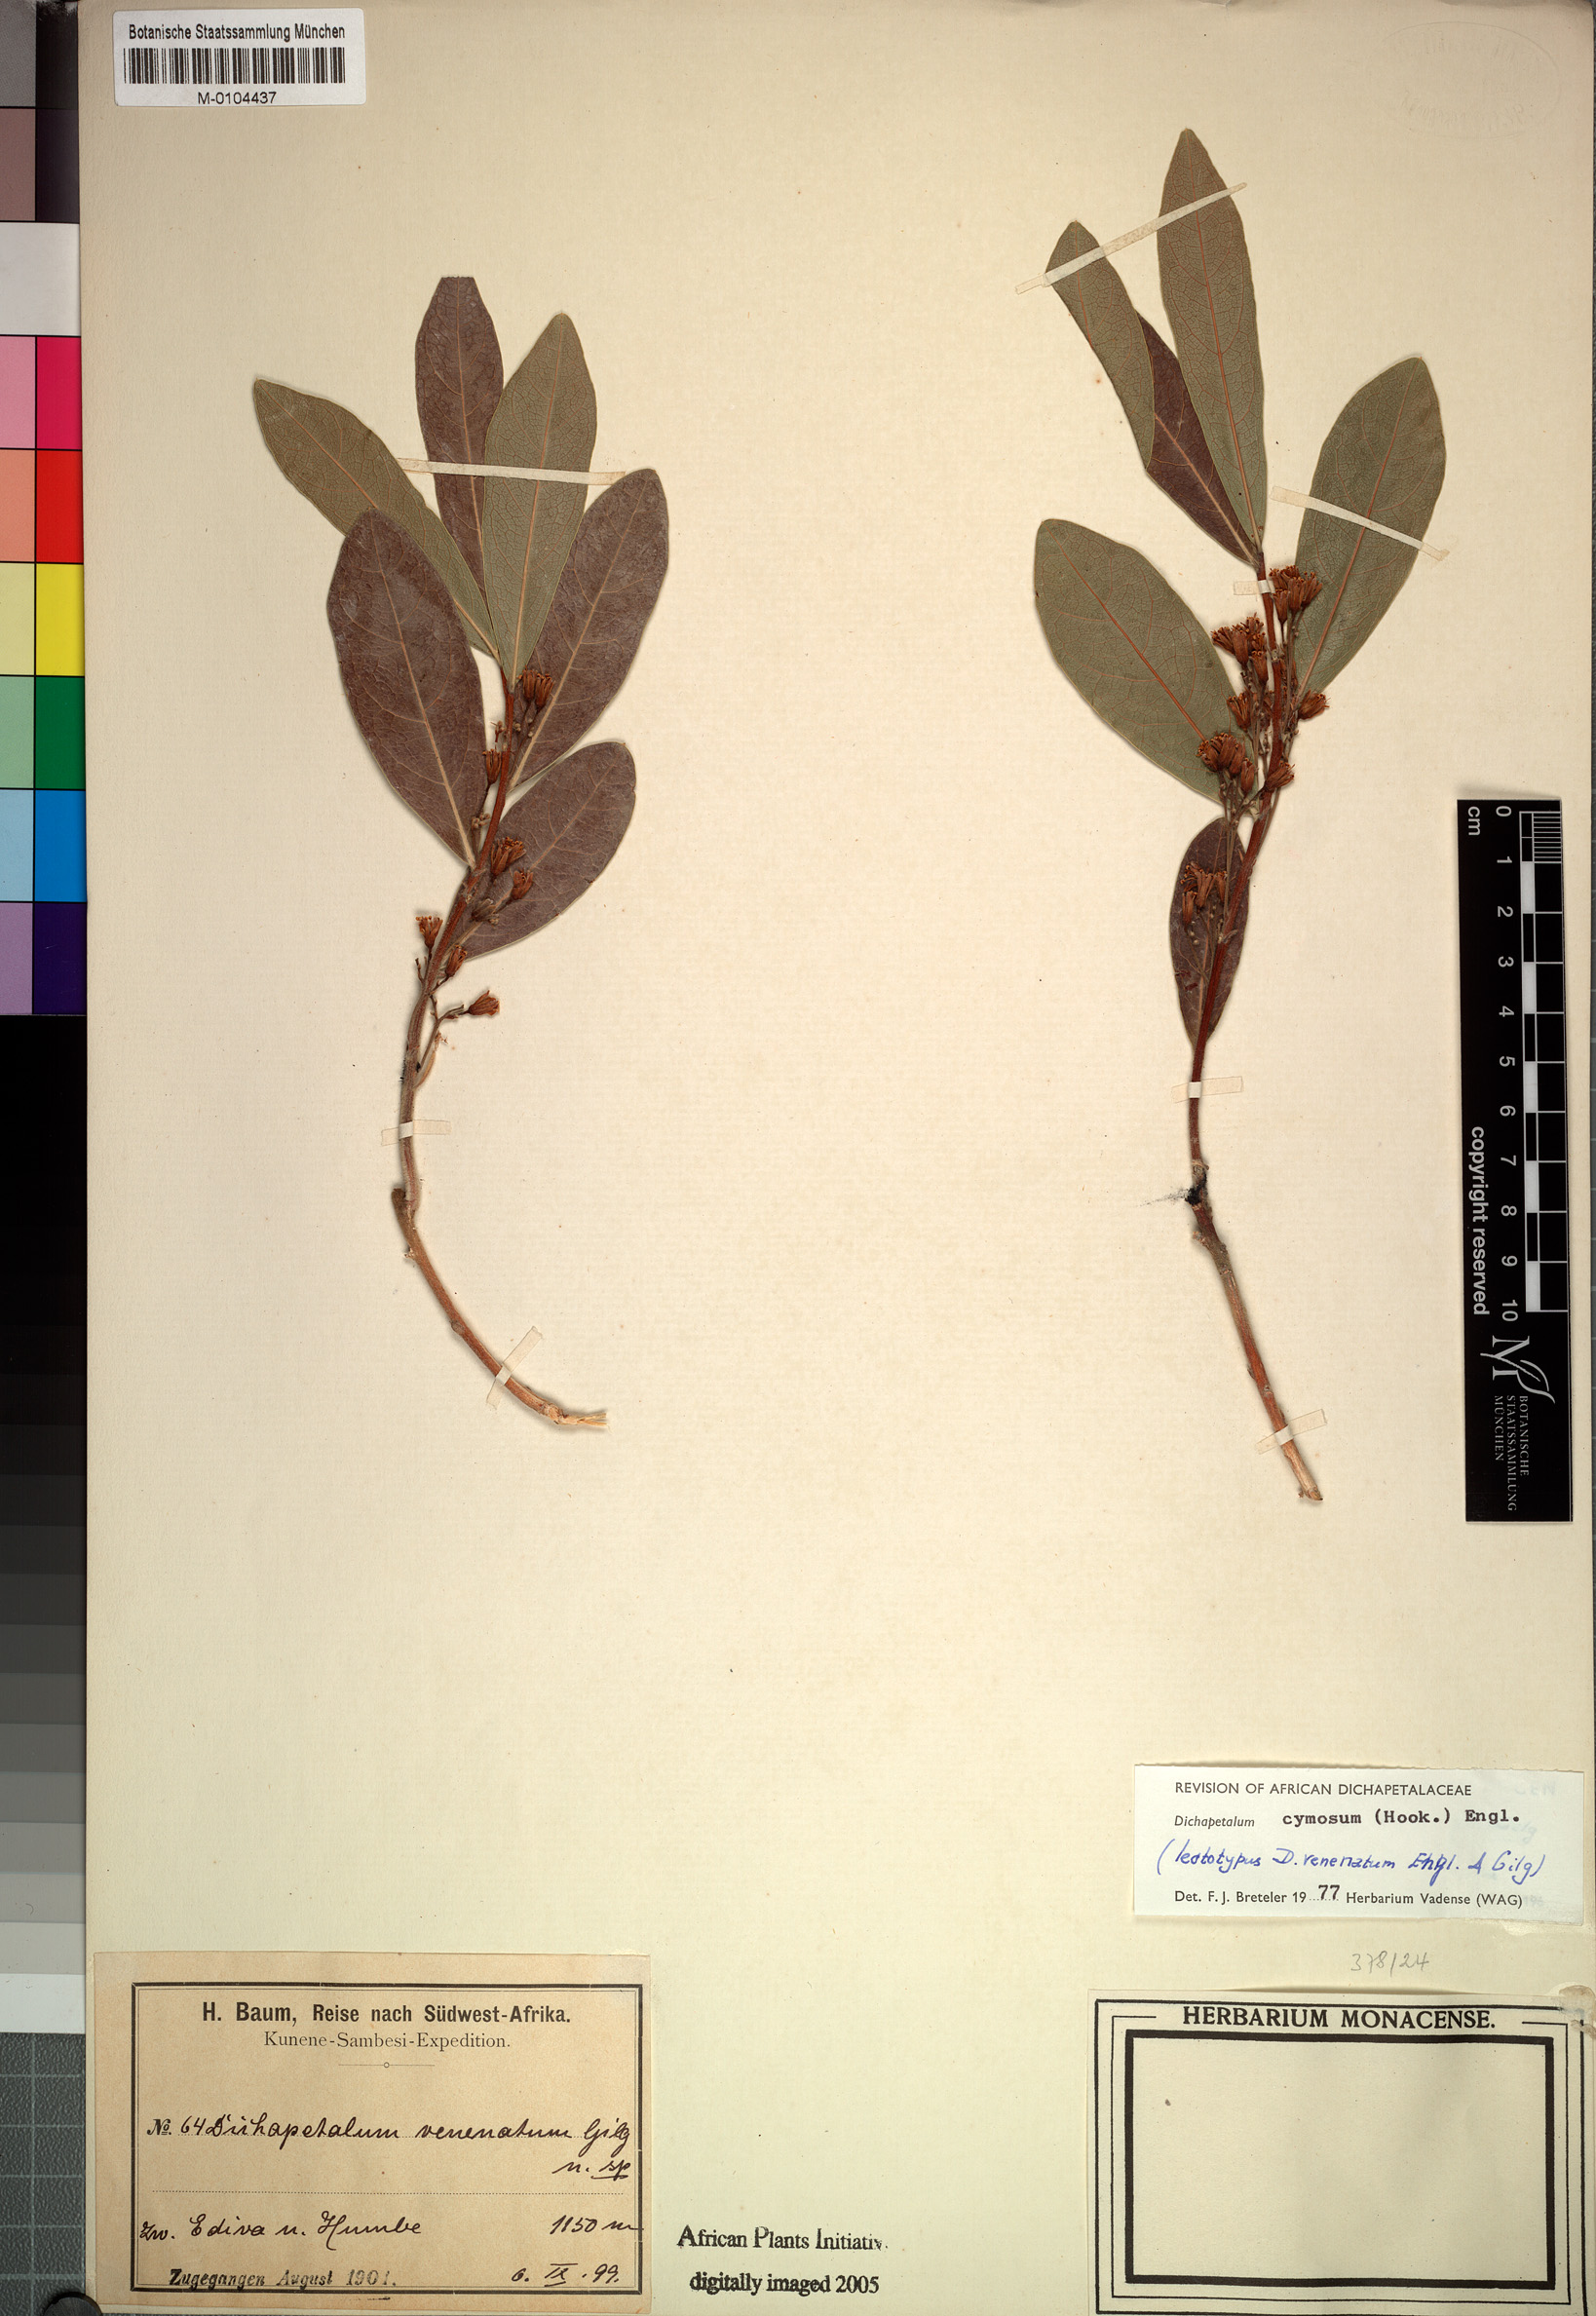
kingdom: Plantae
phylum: Tracheophyta
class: Magnoliopsida
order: Malpighiales
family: Dichapetalaceae
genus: Dichapetalum
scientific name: Dichapetalum cymosum
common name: Poison leaf
